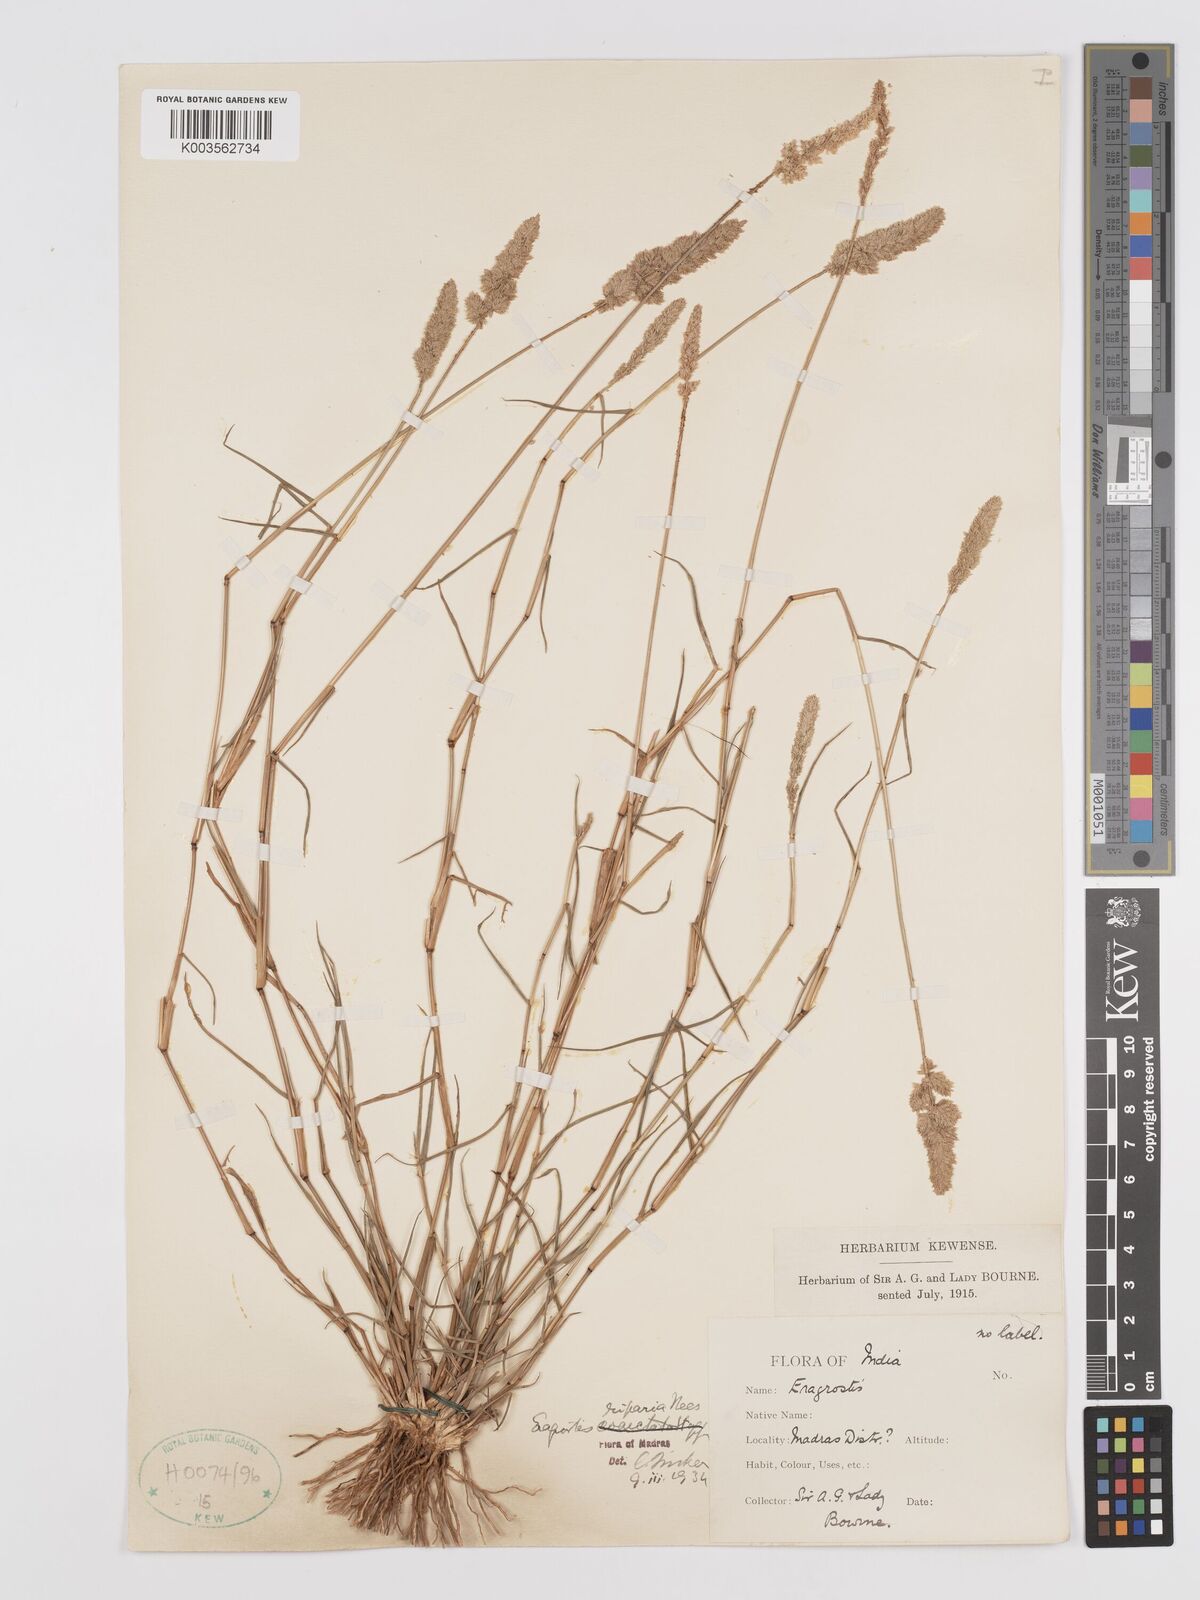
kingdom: Plantae
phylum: Tracheophyta
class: Liliopsida
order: Poales
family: Poaceae
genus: Eragrostis
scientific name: Eragrostis riparia
